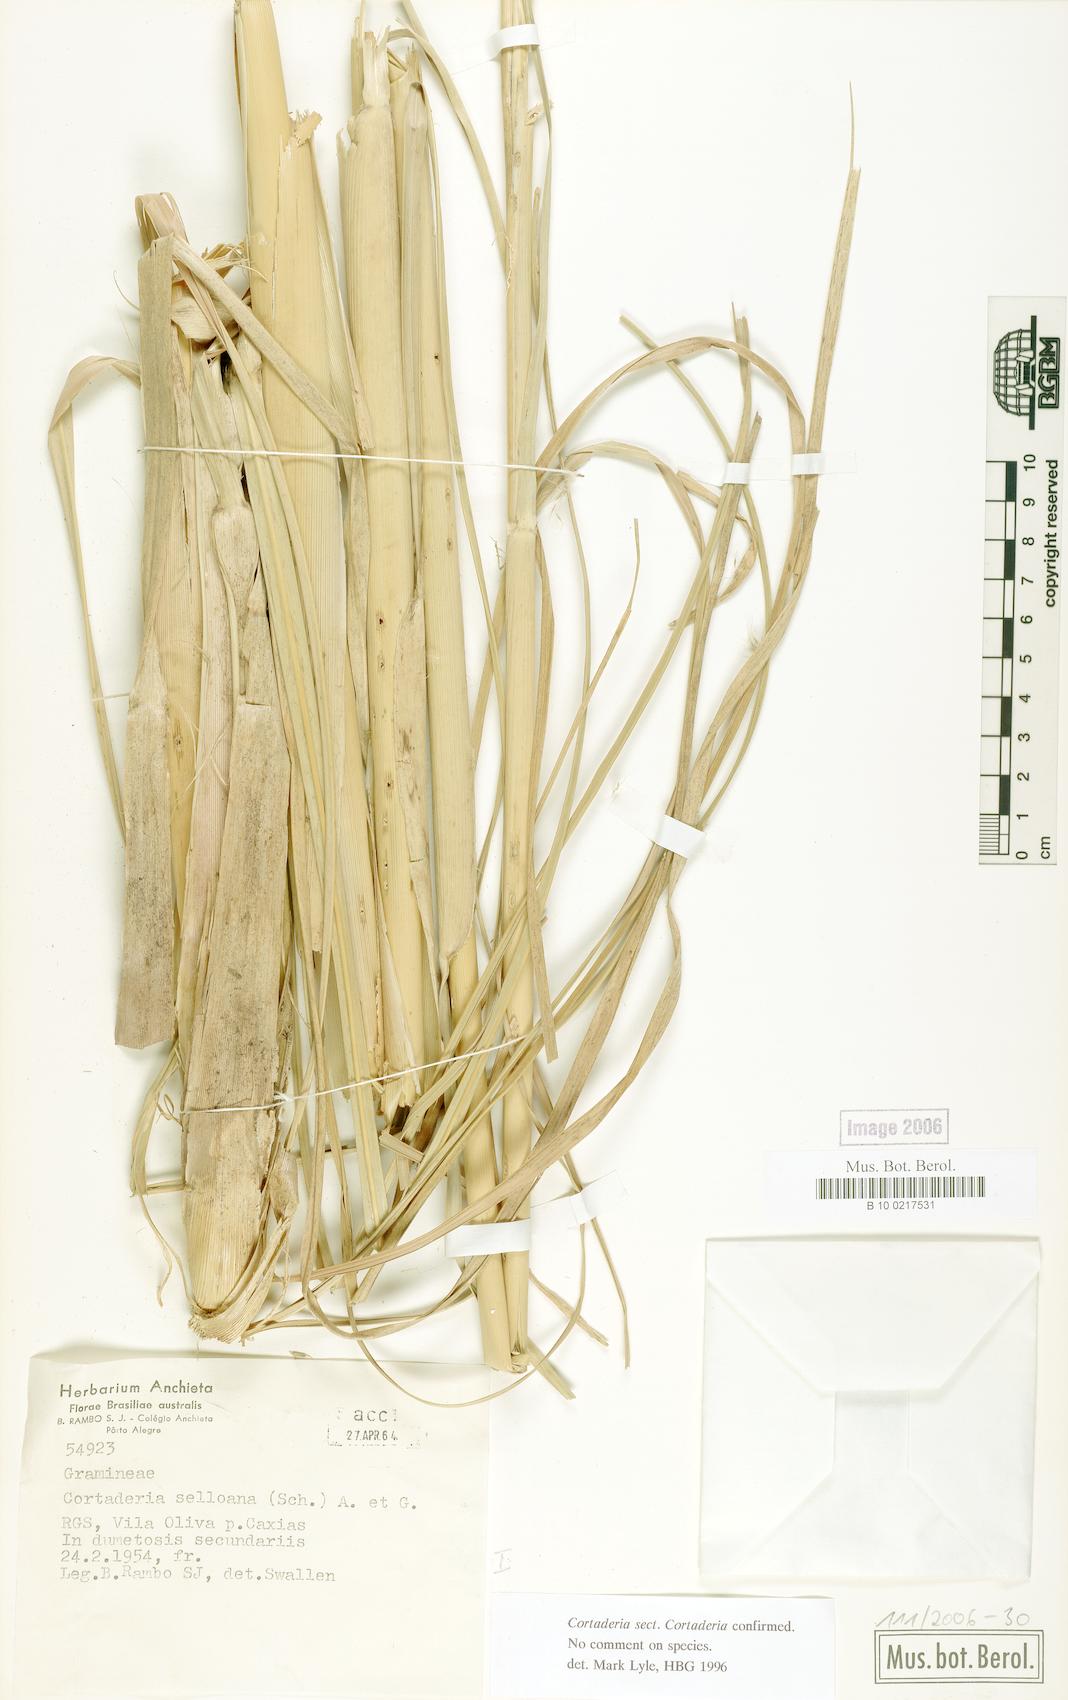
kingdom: Plantae
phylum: Tracheophyta
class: Liliopsida
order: Poales
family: Poaceae
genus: Cortaderia
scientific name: Cortaderia selloana
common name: Uruguayan pampas grass
